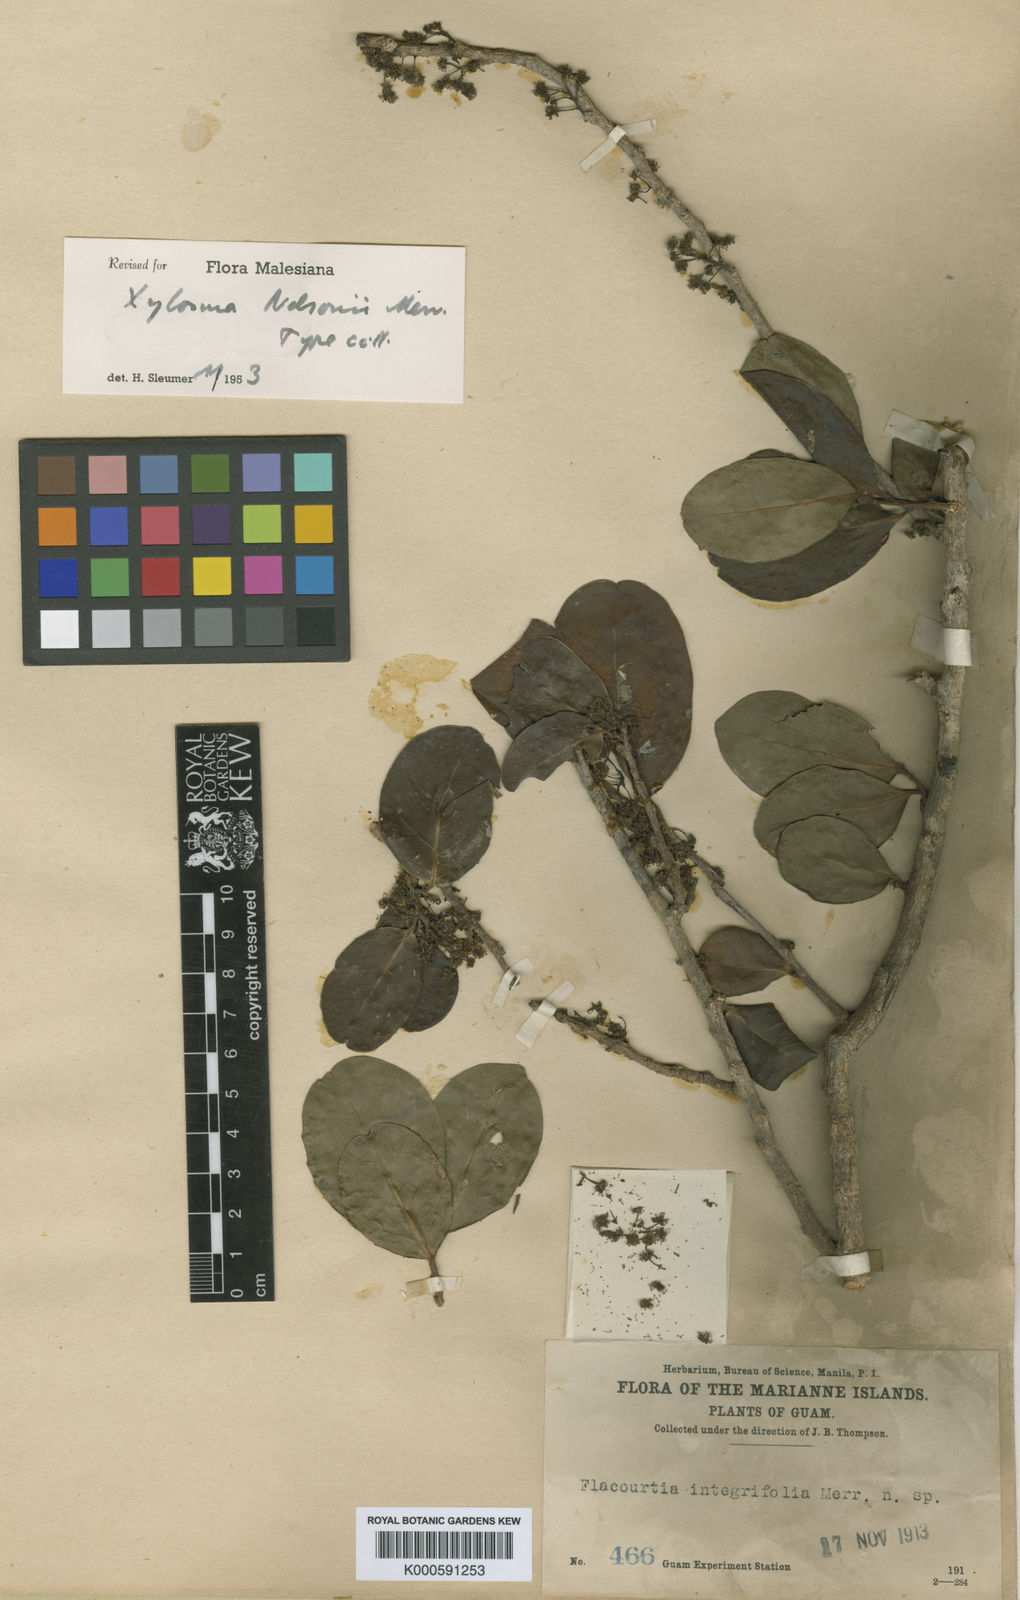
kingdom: Plantae
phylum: Tracheophyta
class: Magnoliopsida
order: Malpighiales
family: Salicaceae
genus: Xylosma
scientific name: Xylosma nelsonii
